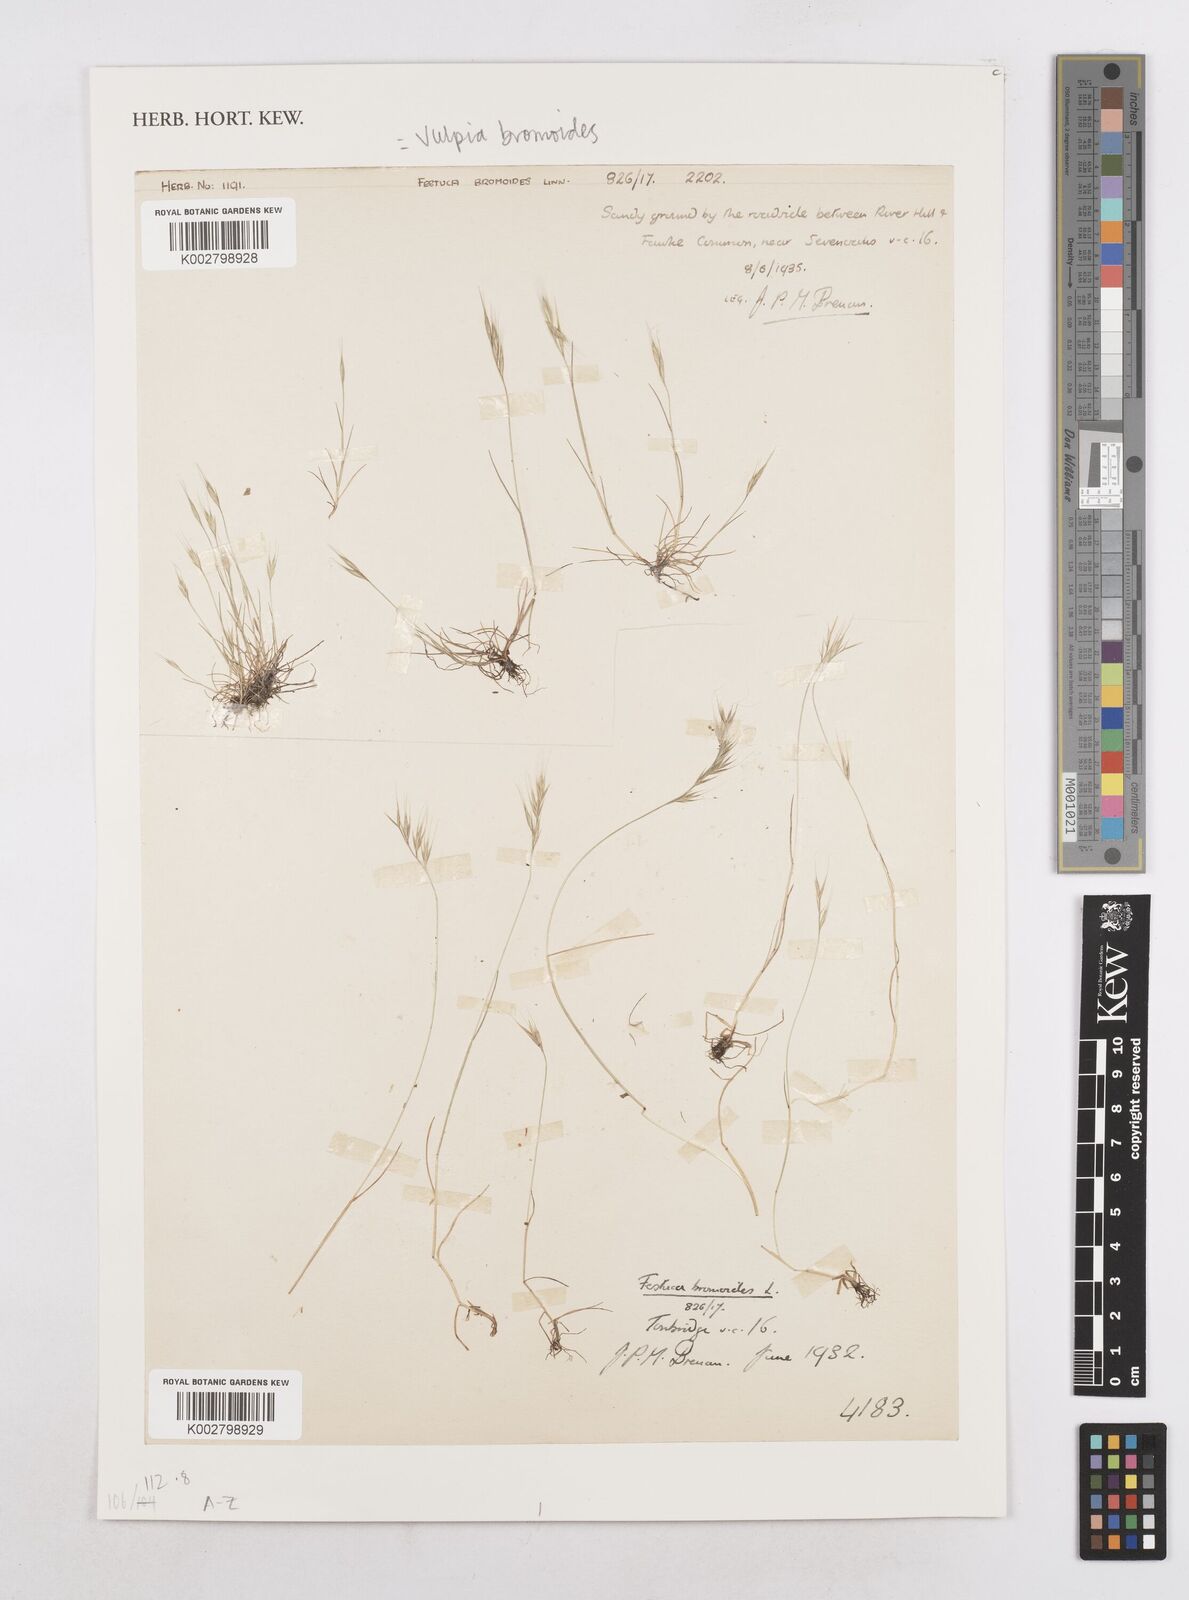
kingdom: Plantae
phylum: Tracheophyta
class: Liliopsida
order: Poales
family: Poaceae
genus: Festuca
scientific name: Festuca bromoides
